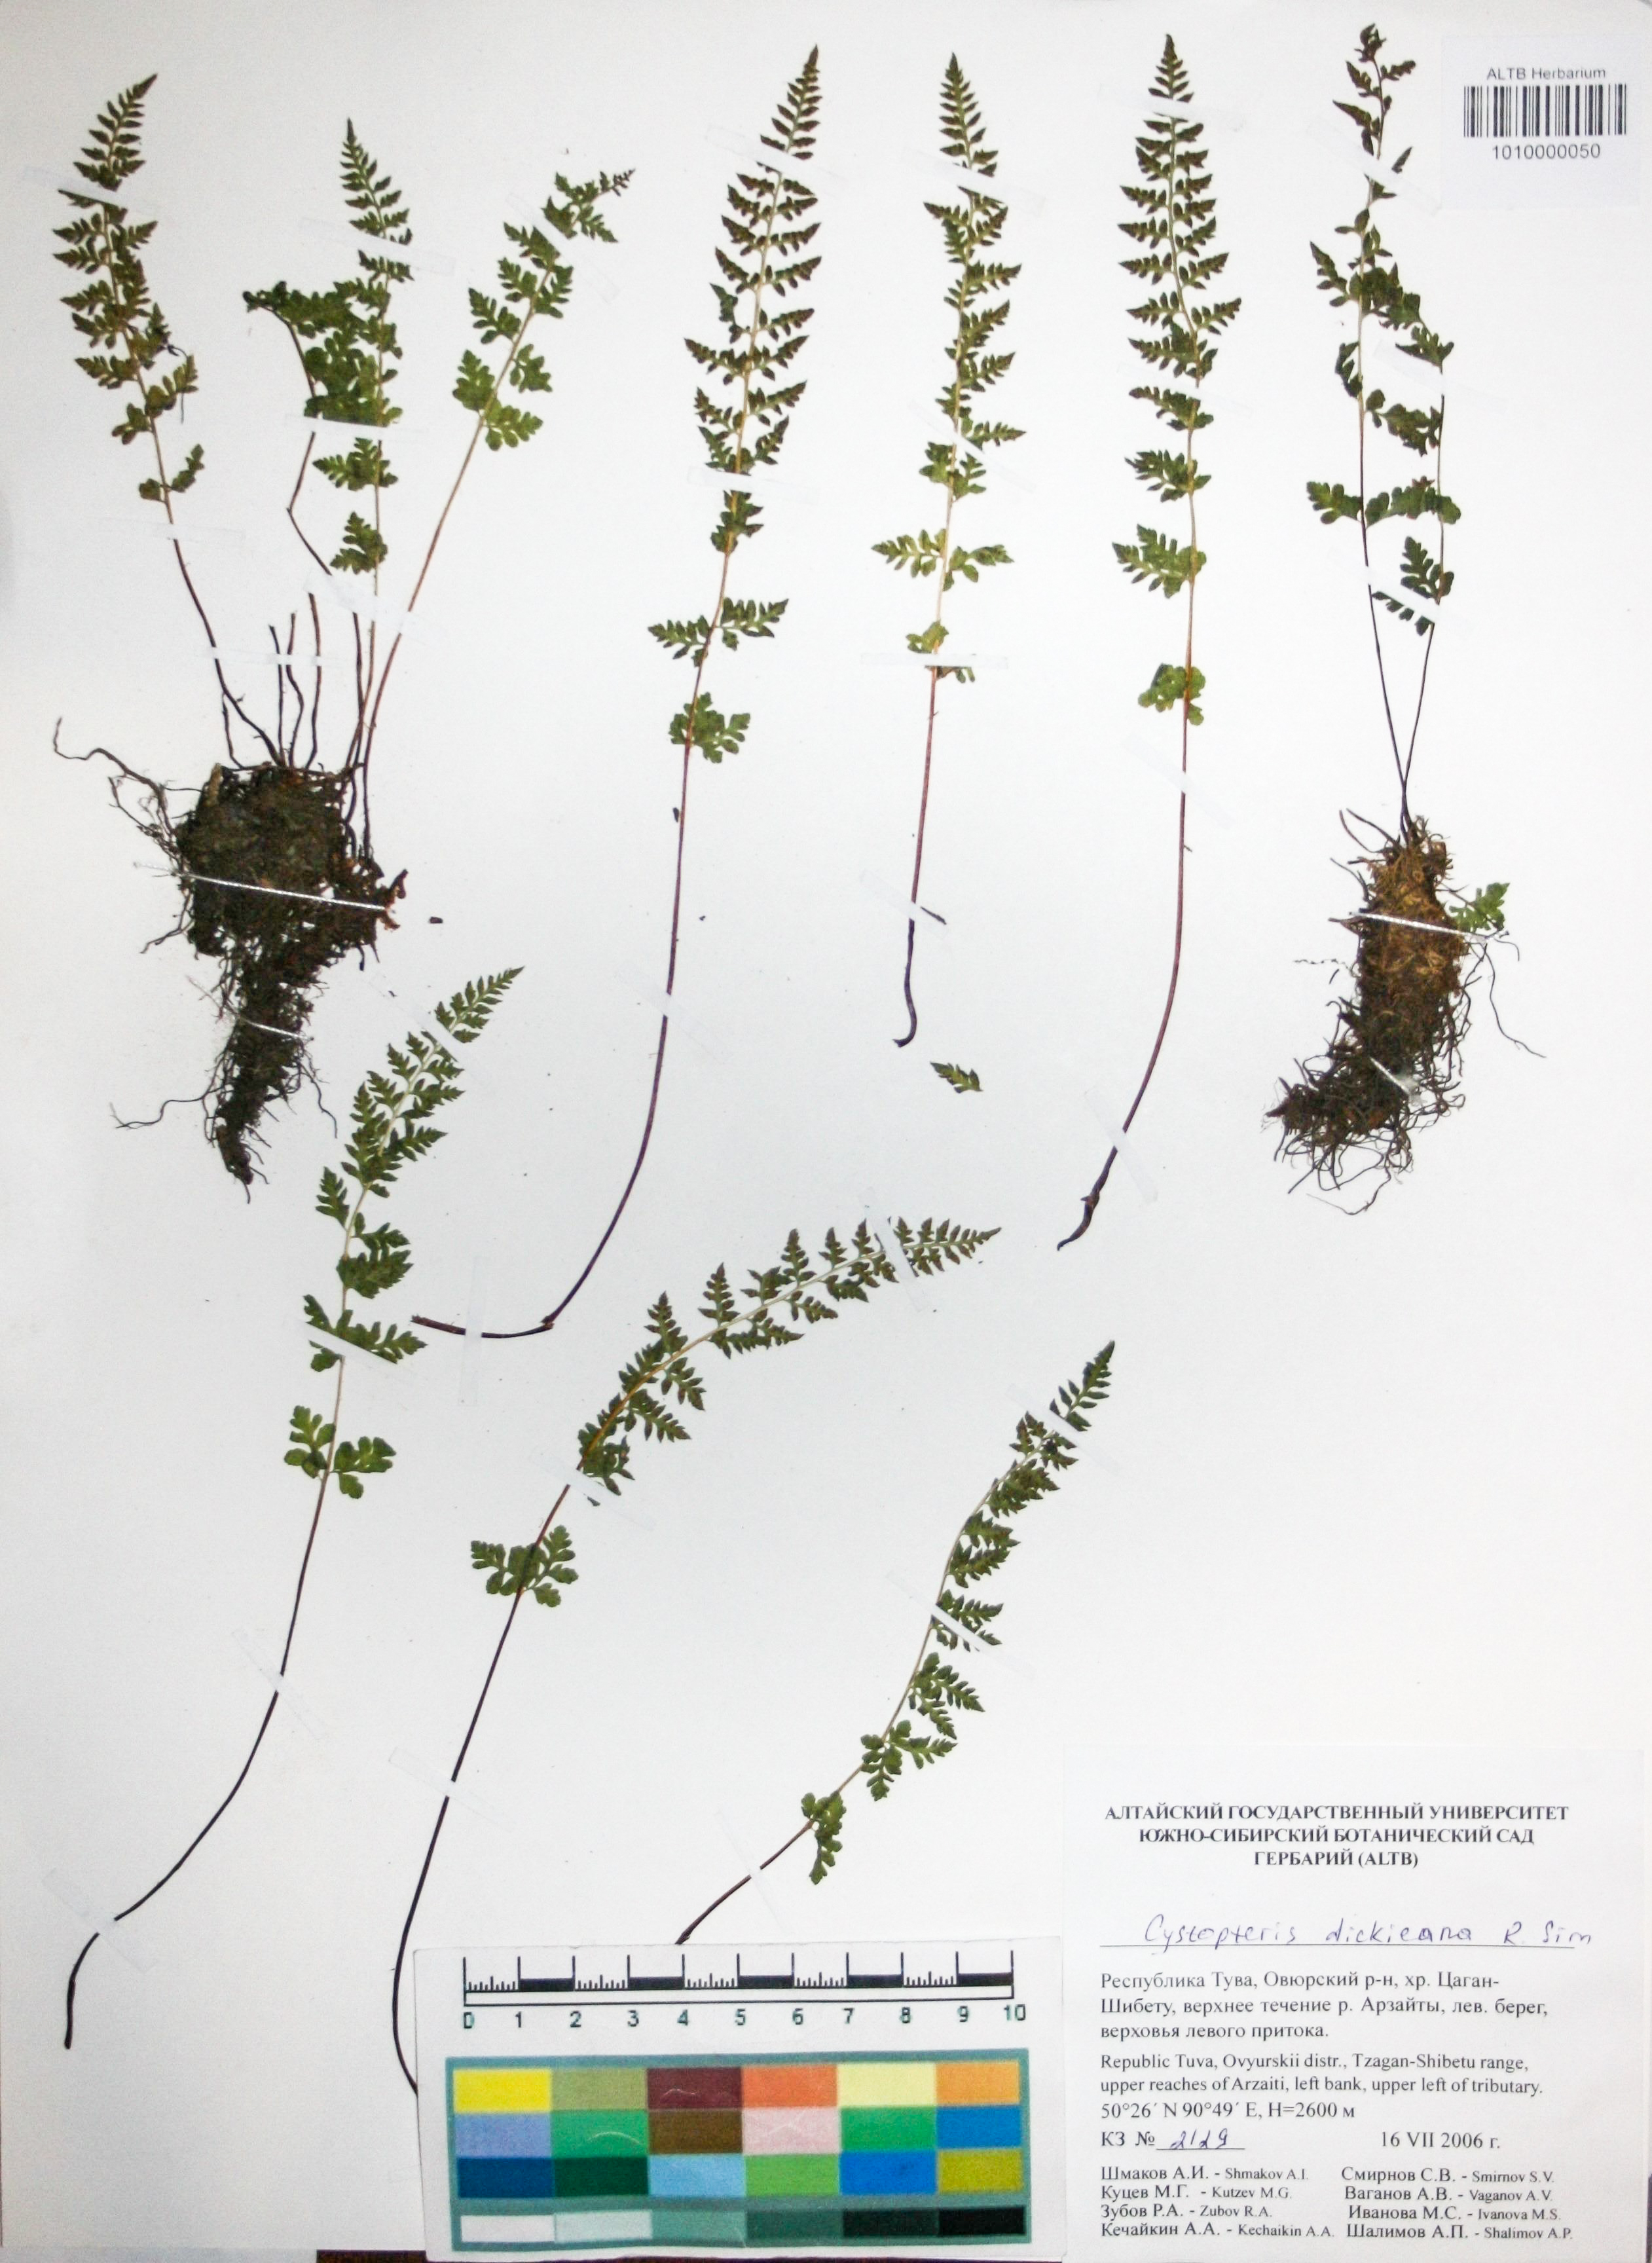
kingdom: Plantae
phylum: Tracheophyta
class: Polypodiopsida
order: Polypodiales
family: Cystopteridaceae
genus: Cystopteris
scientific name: Cystopteris dickieana
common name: Dickie's bladder-fern
